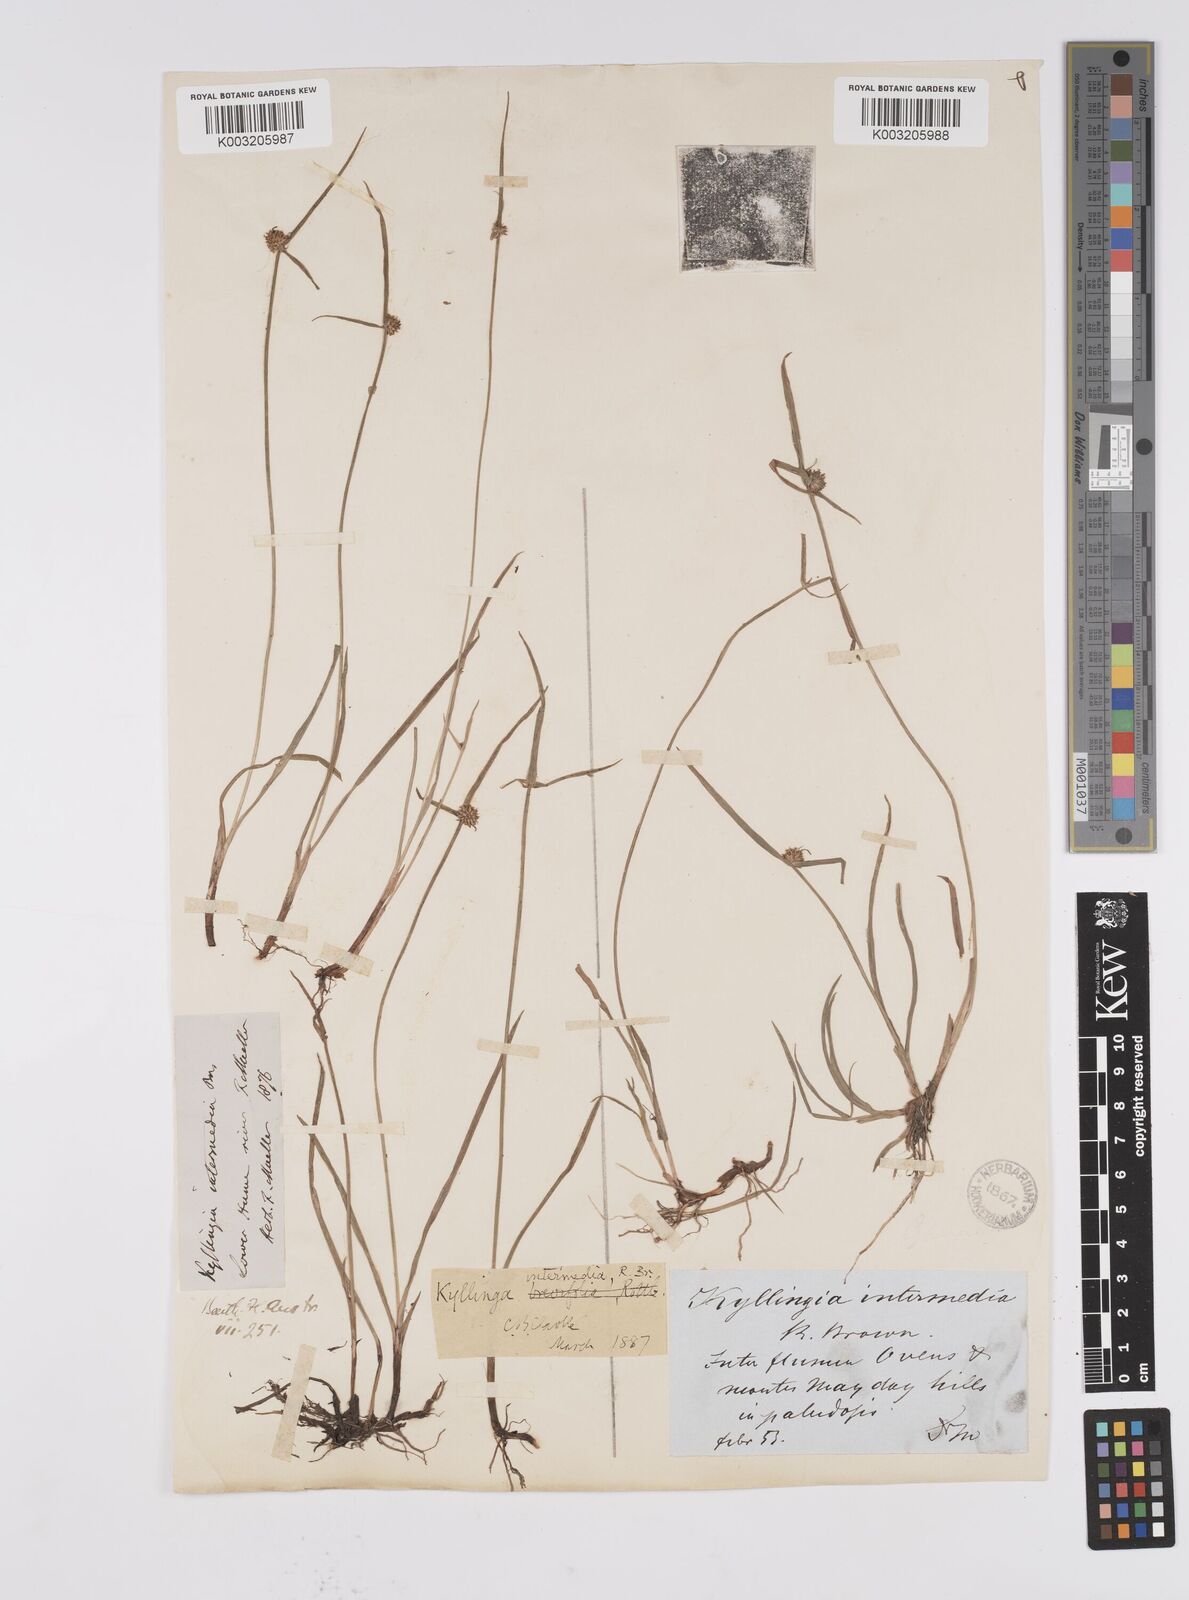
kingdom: Plantae
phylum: Tracheophyta
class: Liliopsida
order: Poales
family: Cyperaceae
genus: Cyperus
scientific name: Cyperus brevifolius
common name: Globe kyllinga
